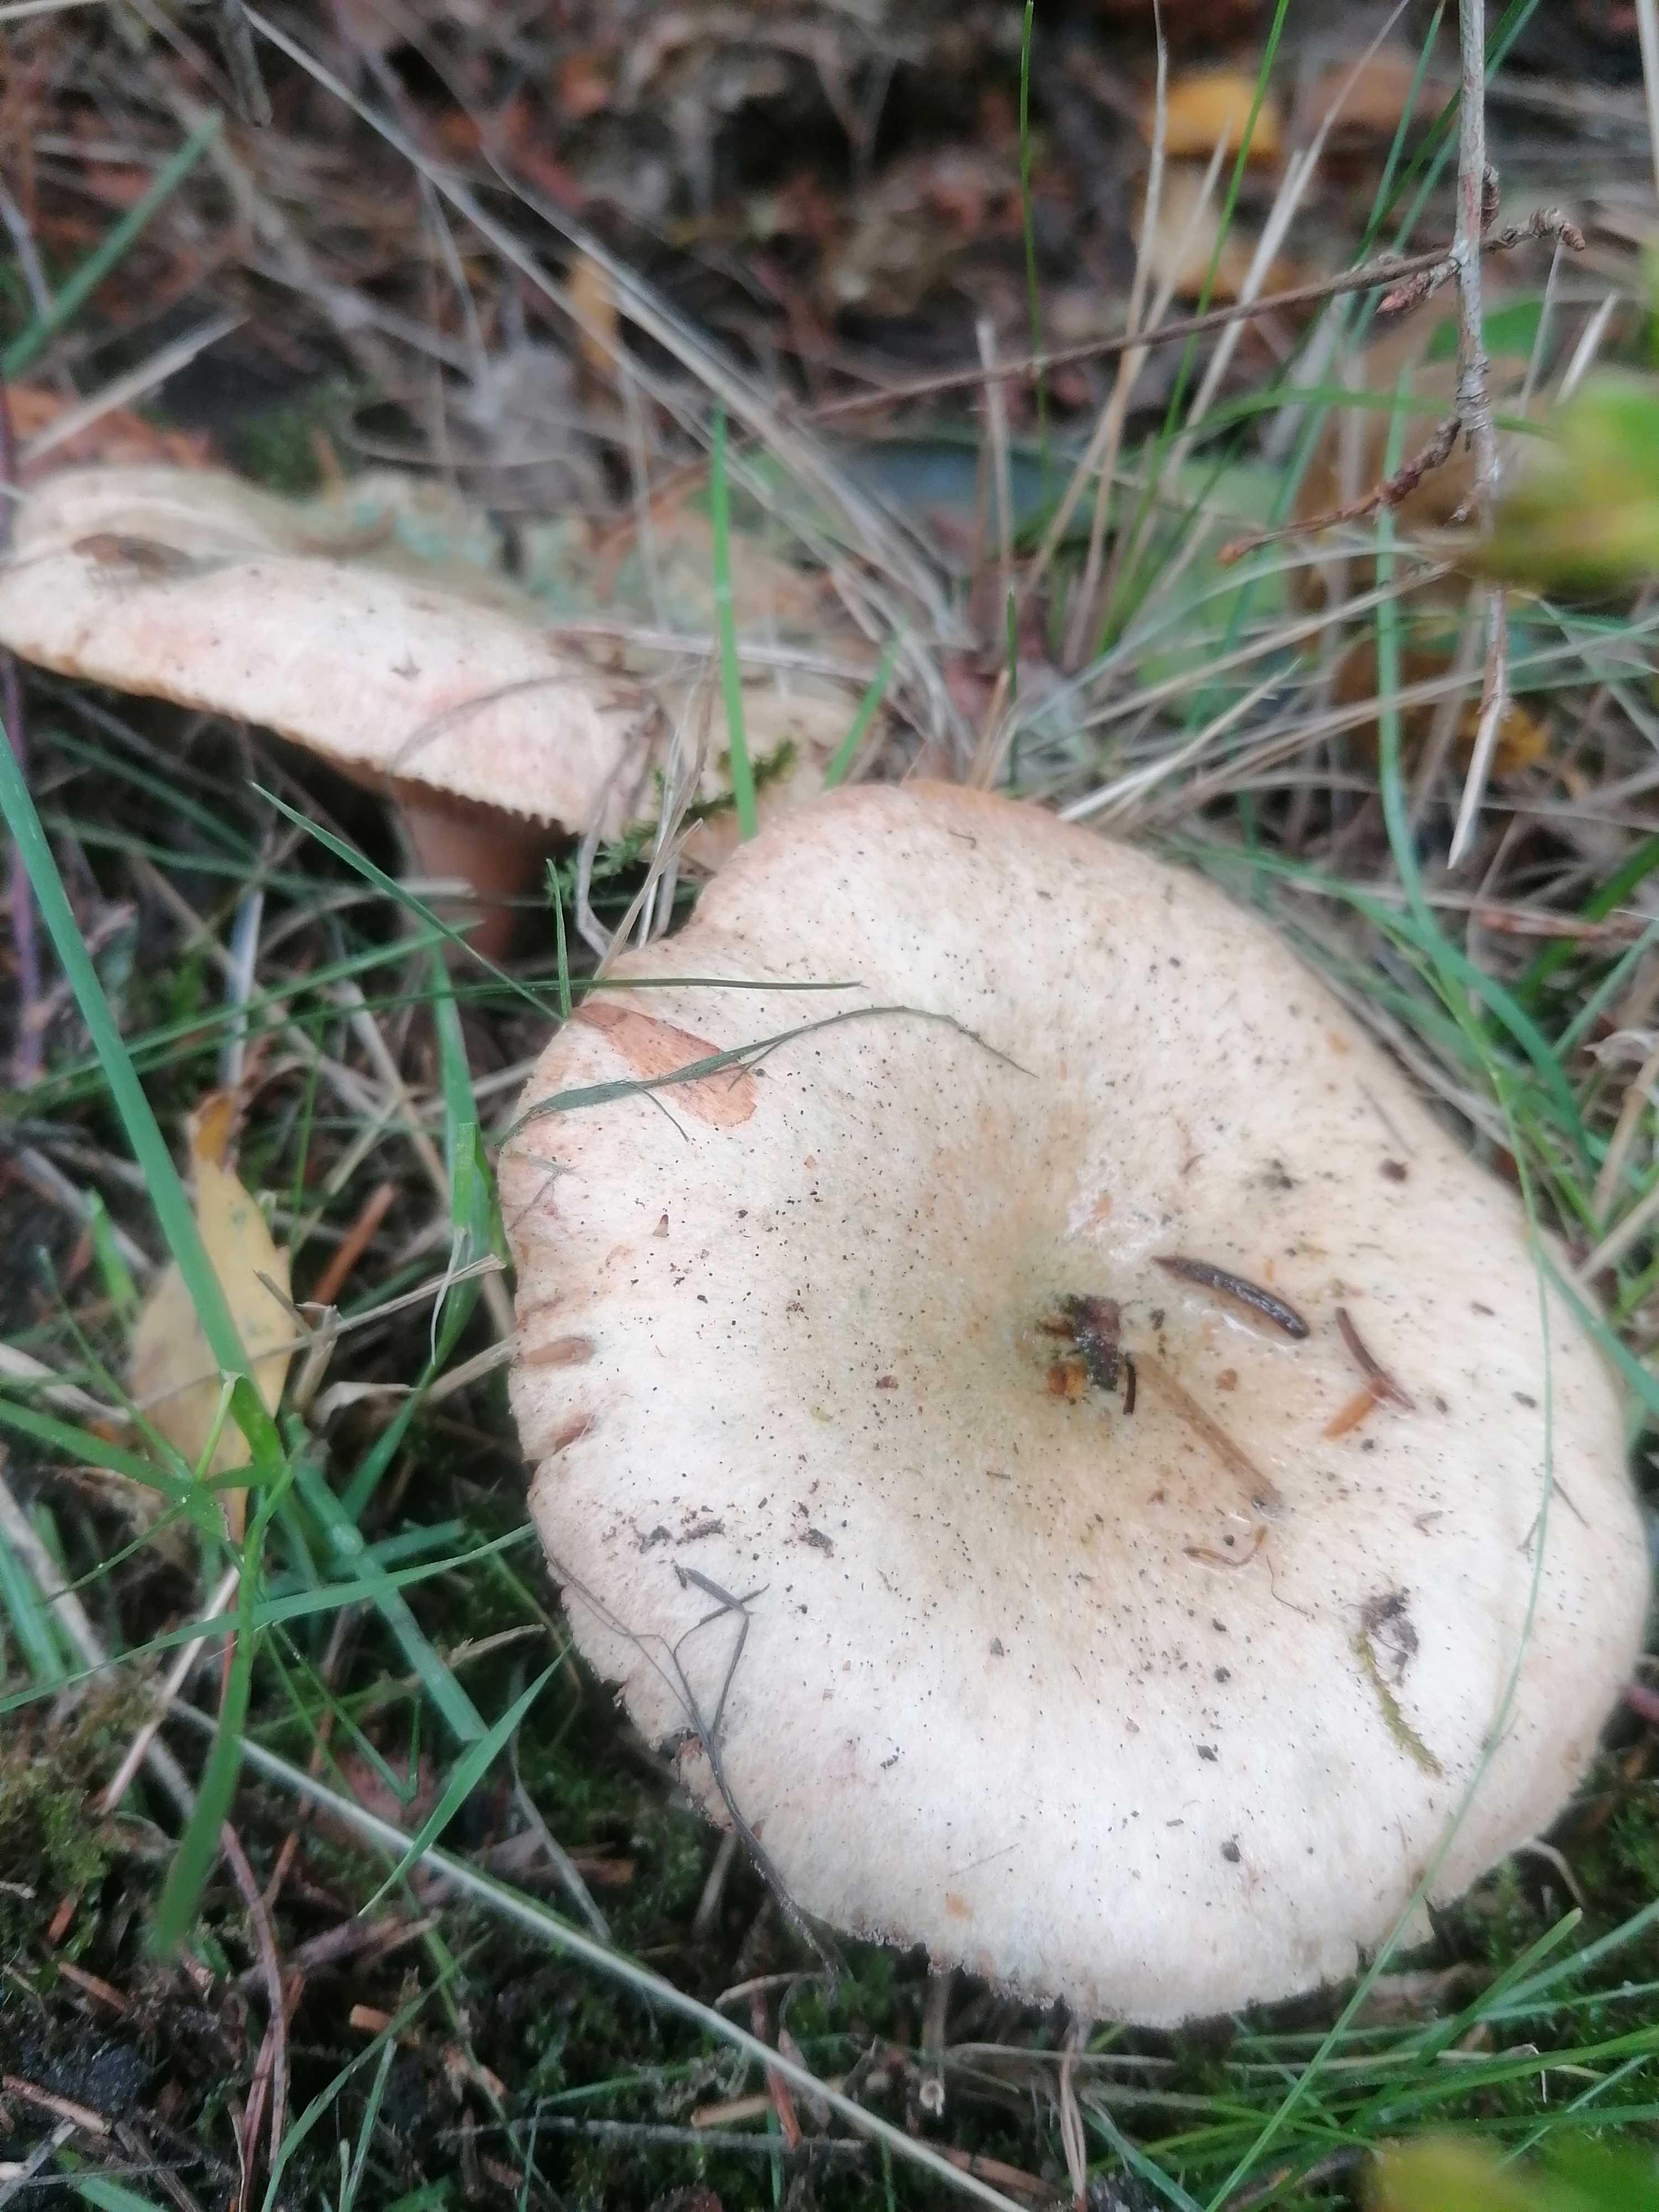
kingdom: Fungi
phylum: Basidiomycota
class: Agaricomycetes
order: Russulales
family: Russulaceae
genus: Lactarius
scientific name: Lactarius deterrimus
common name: gran-mælkehat
